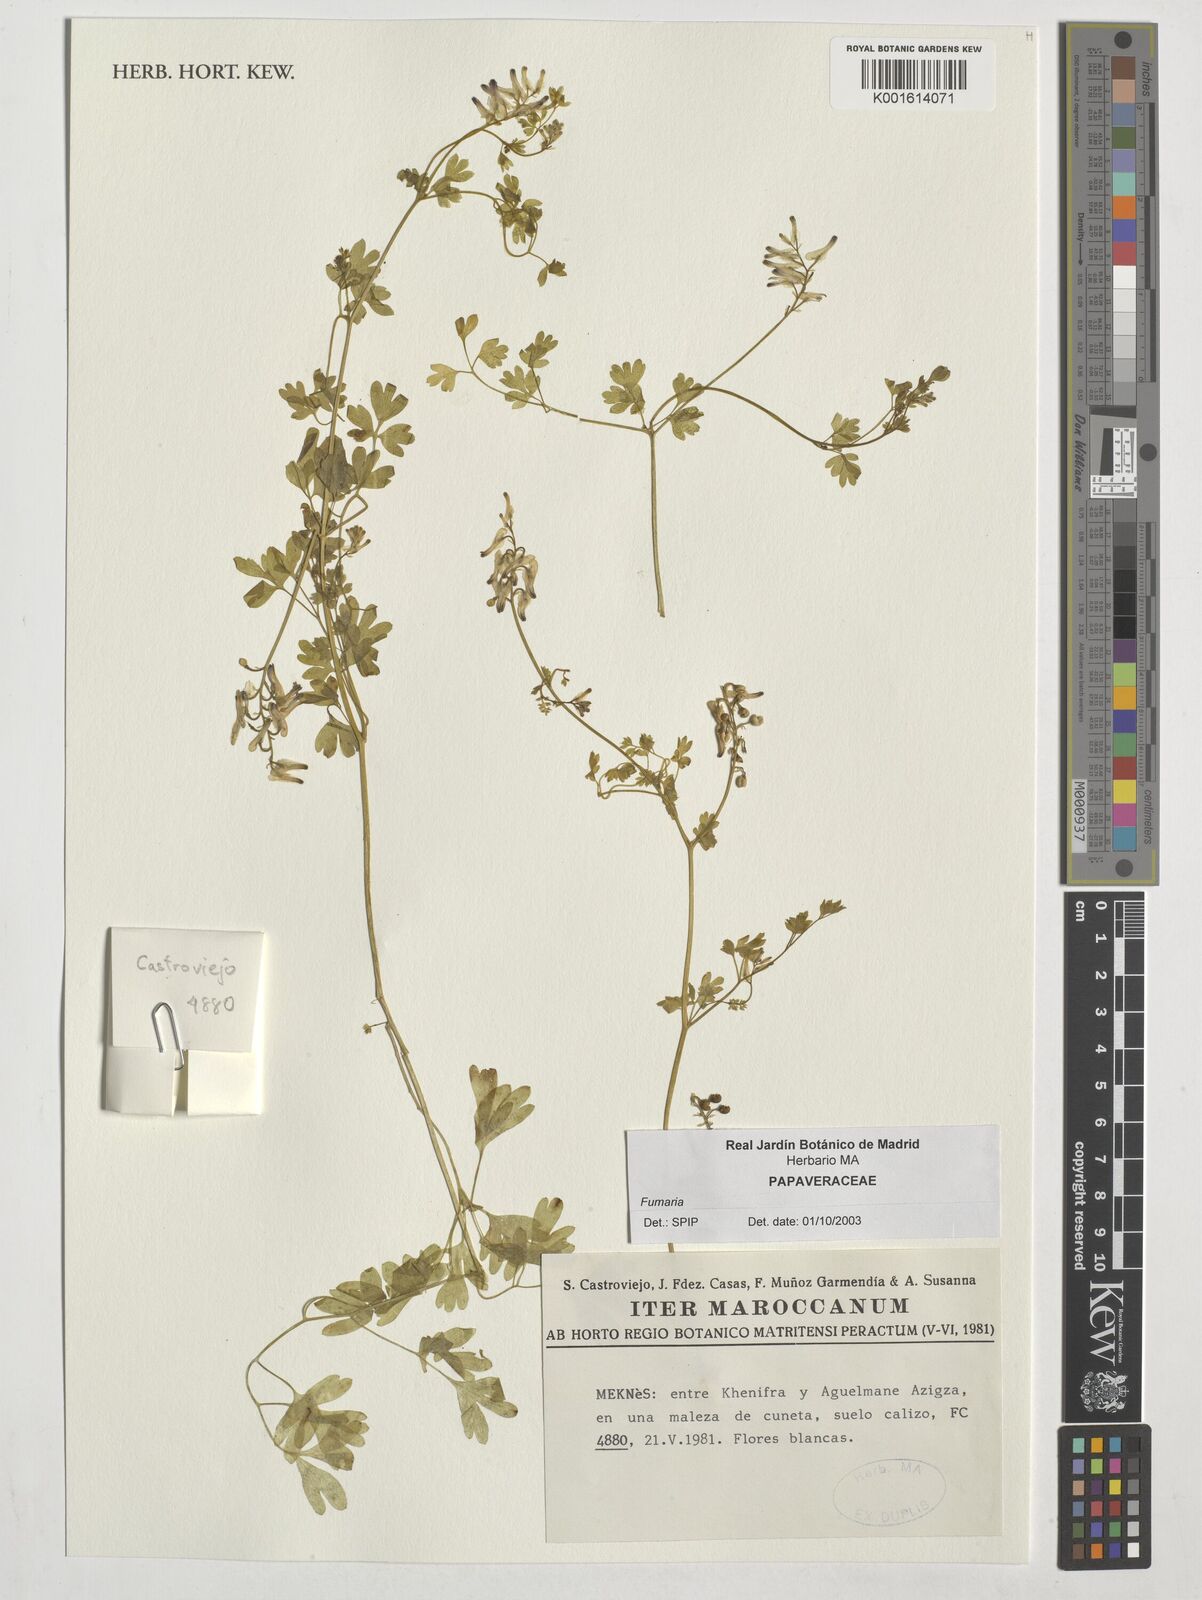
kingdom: Plantae
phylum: Tracheophyta
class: Magnoliopsida
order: Ranunculales
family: Papaveraceae
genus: Fumaria
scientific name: Fumaria
